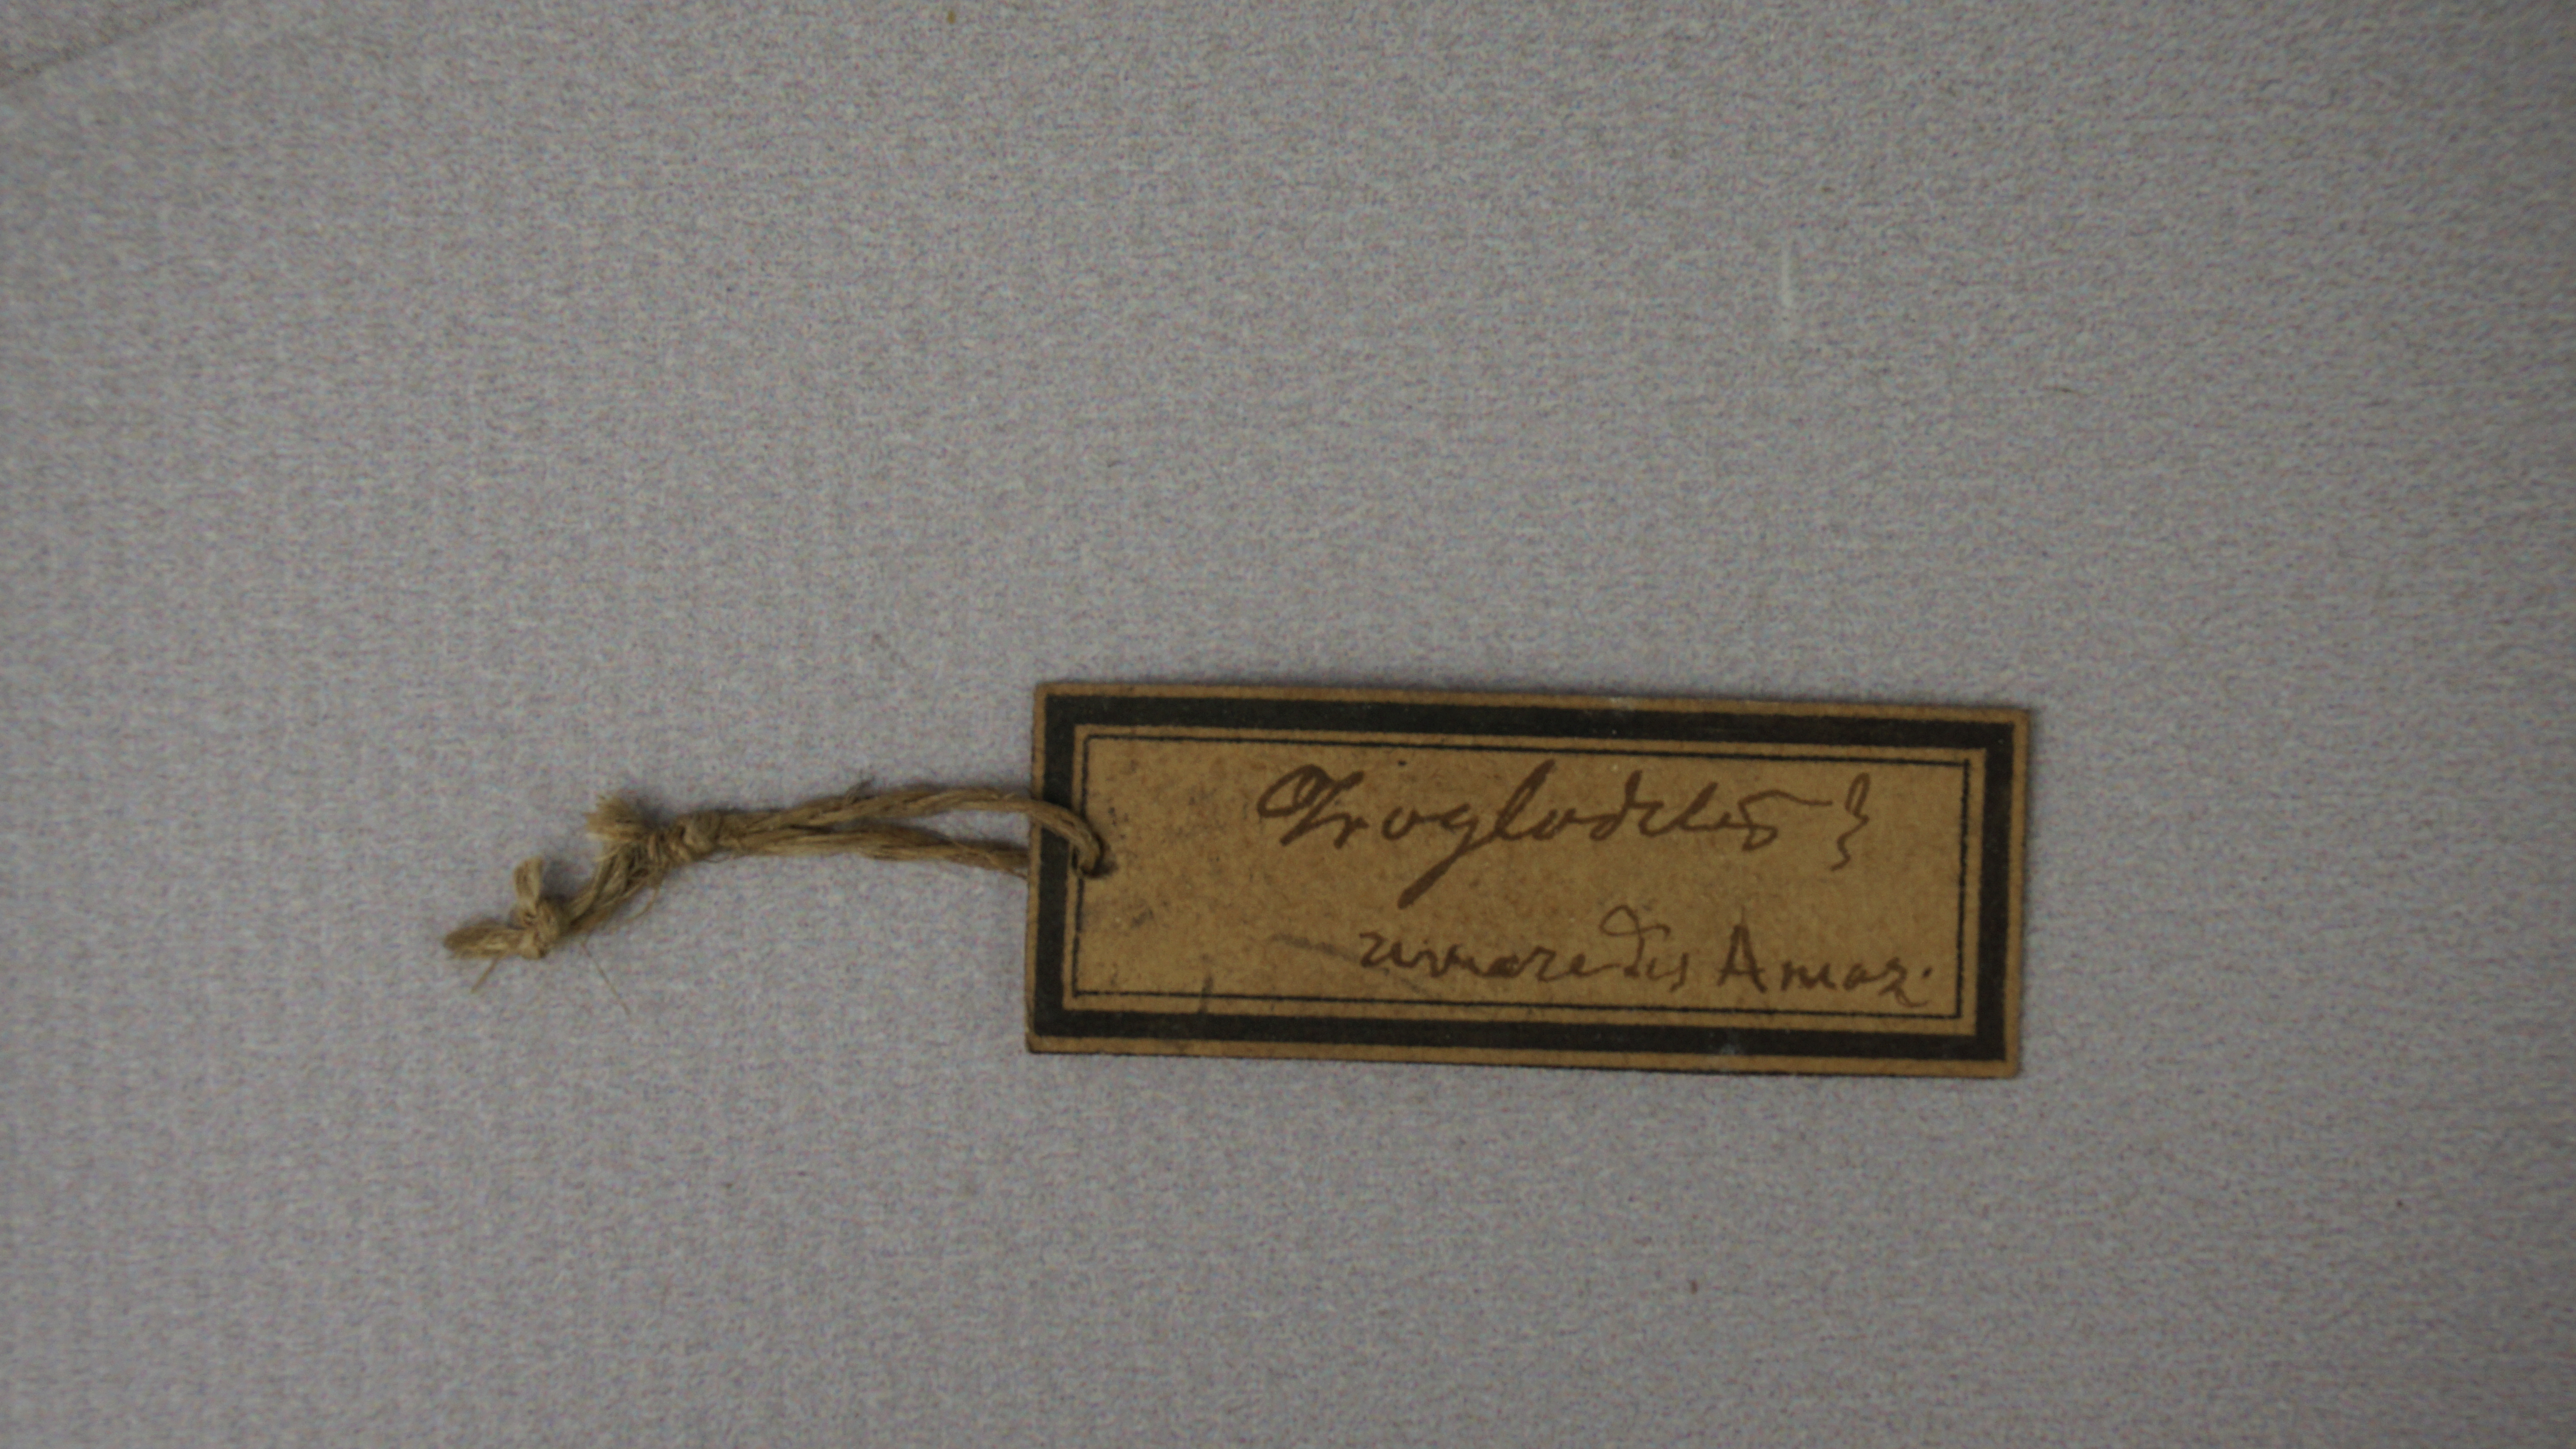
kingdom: Animalia
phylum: Chordata
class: Aves
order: Passeriformes
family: Troglodytidae
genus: Cyphorhinus
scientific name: Cyphorhinus arada
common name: Musician wren
